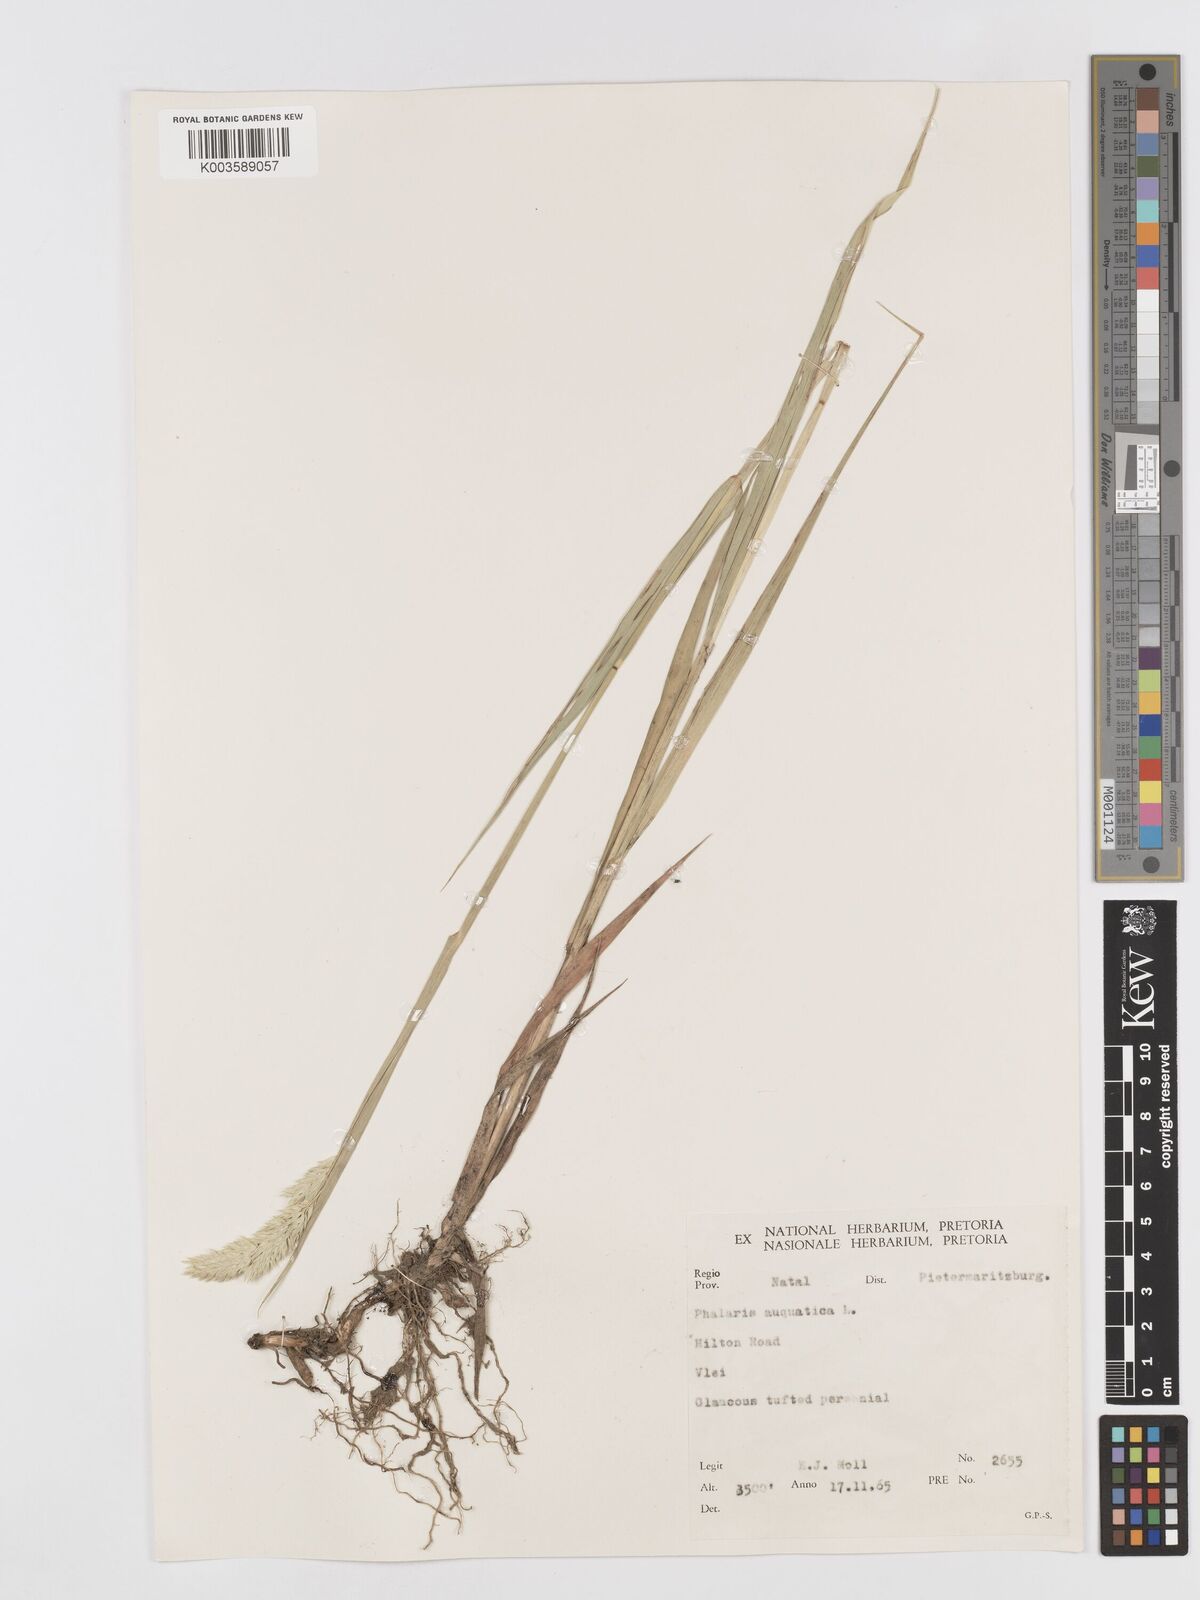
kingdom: Plantae
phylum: Tracheophyta
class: Liliopsida
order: Poales
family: Poaceae
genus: Phalaris
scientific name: Phalaris aquatica
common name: Bulbous canary-grass
